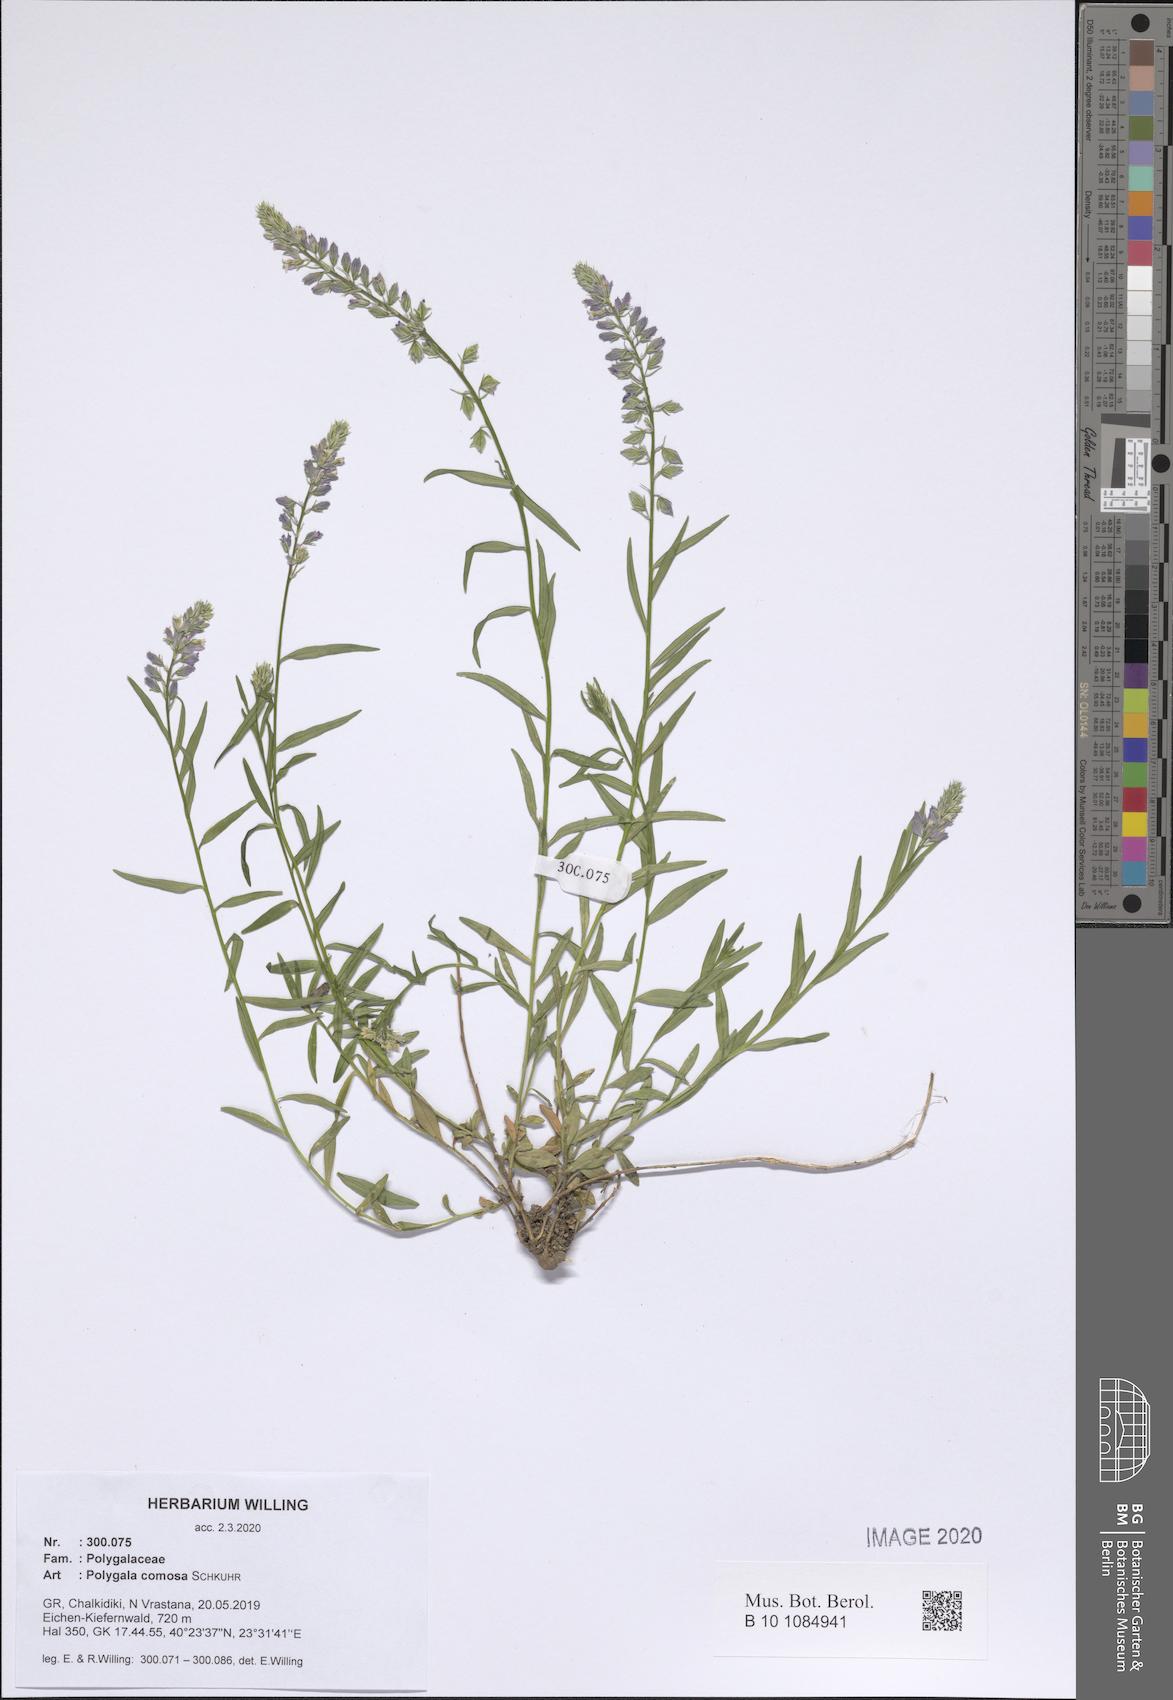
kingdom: Plantae
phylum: Tracheophyta
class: Magnoliopsida
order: Fabales
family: Polygalaceae
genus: Polygala
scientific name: Polygala comosa
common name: Tufted milkwort
